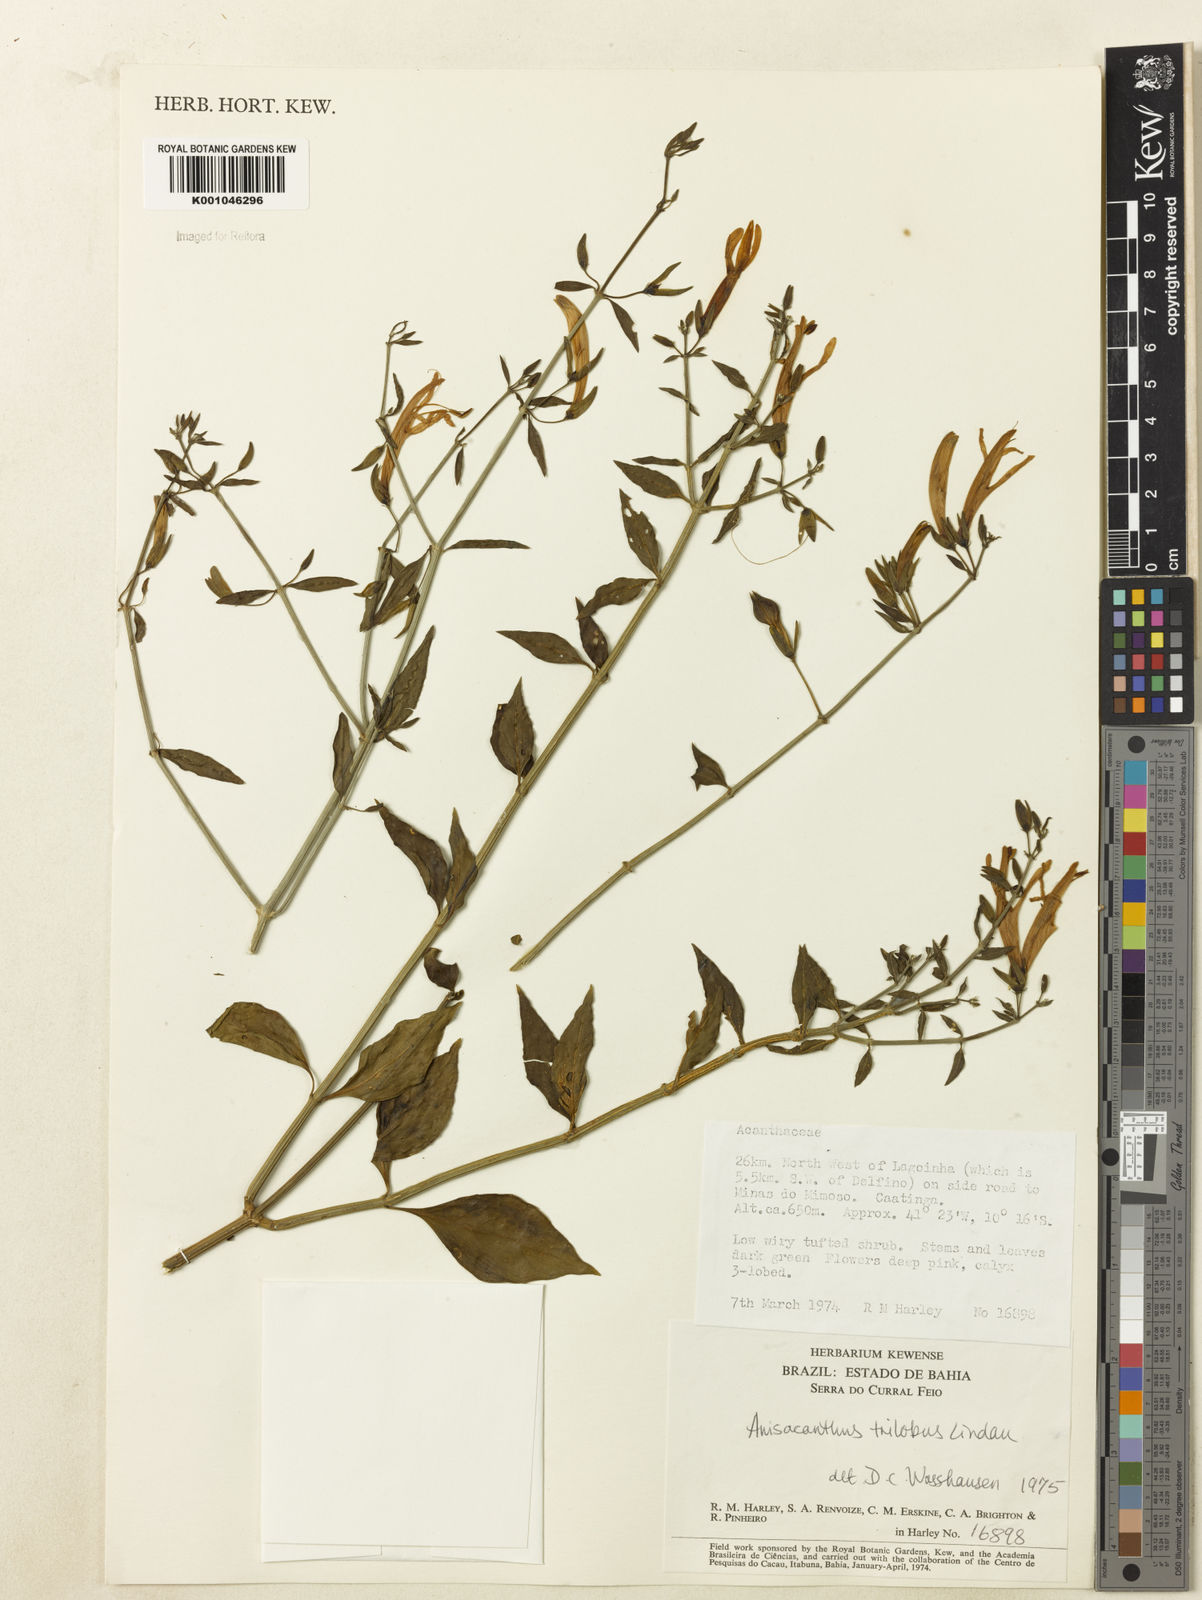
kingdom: Plantae
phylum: Tracheophyta
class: Magnoliopsida
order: Lamiales
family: Acanthaceae
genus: Justicia
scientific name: Justicia triloba
